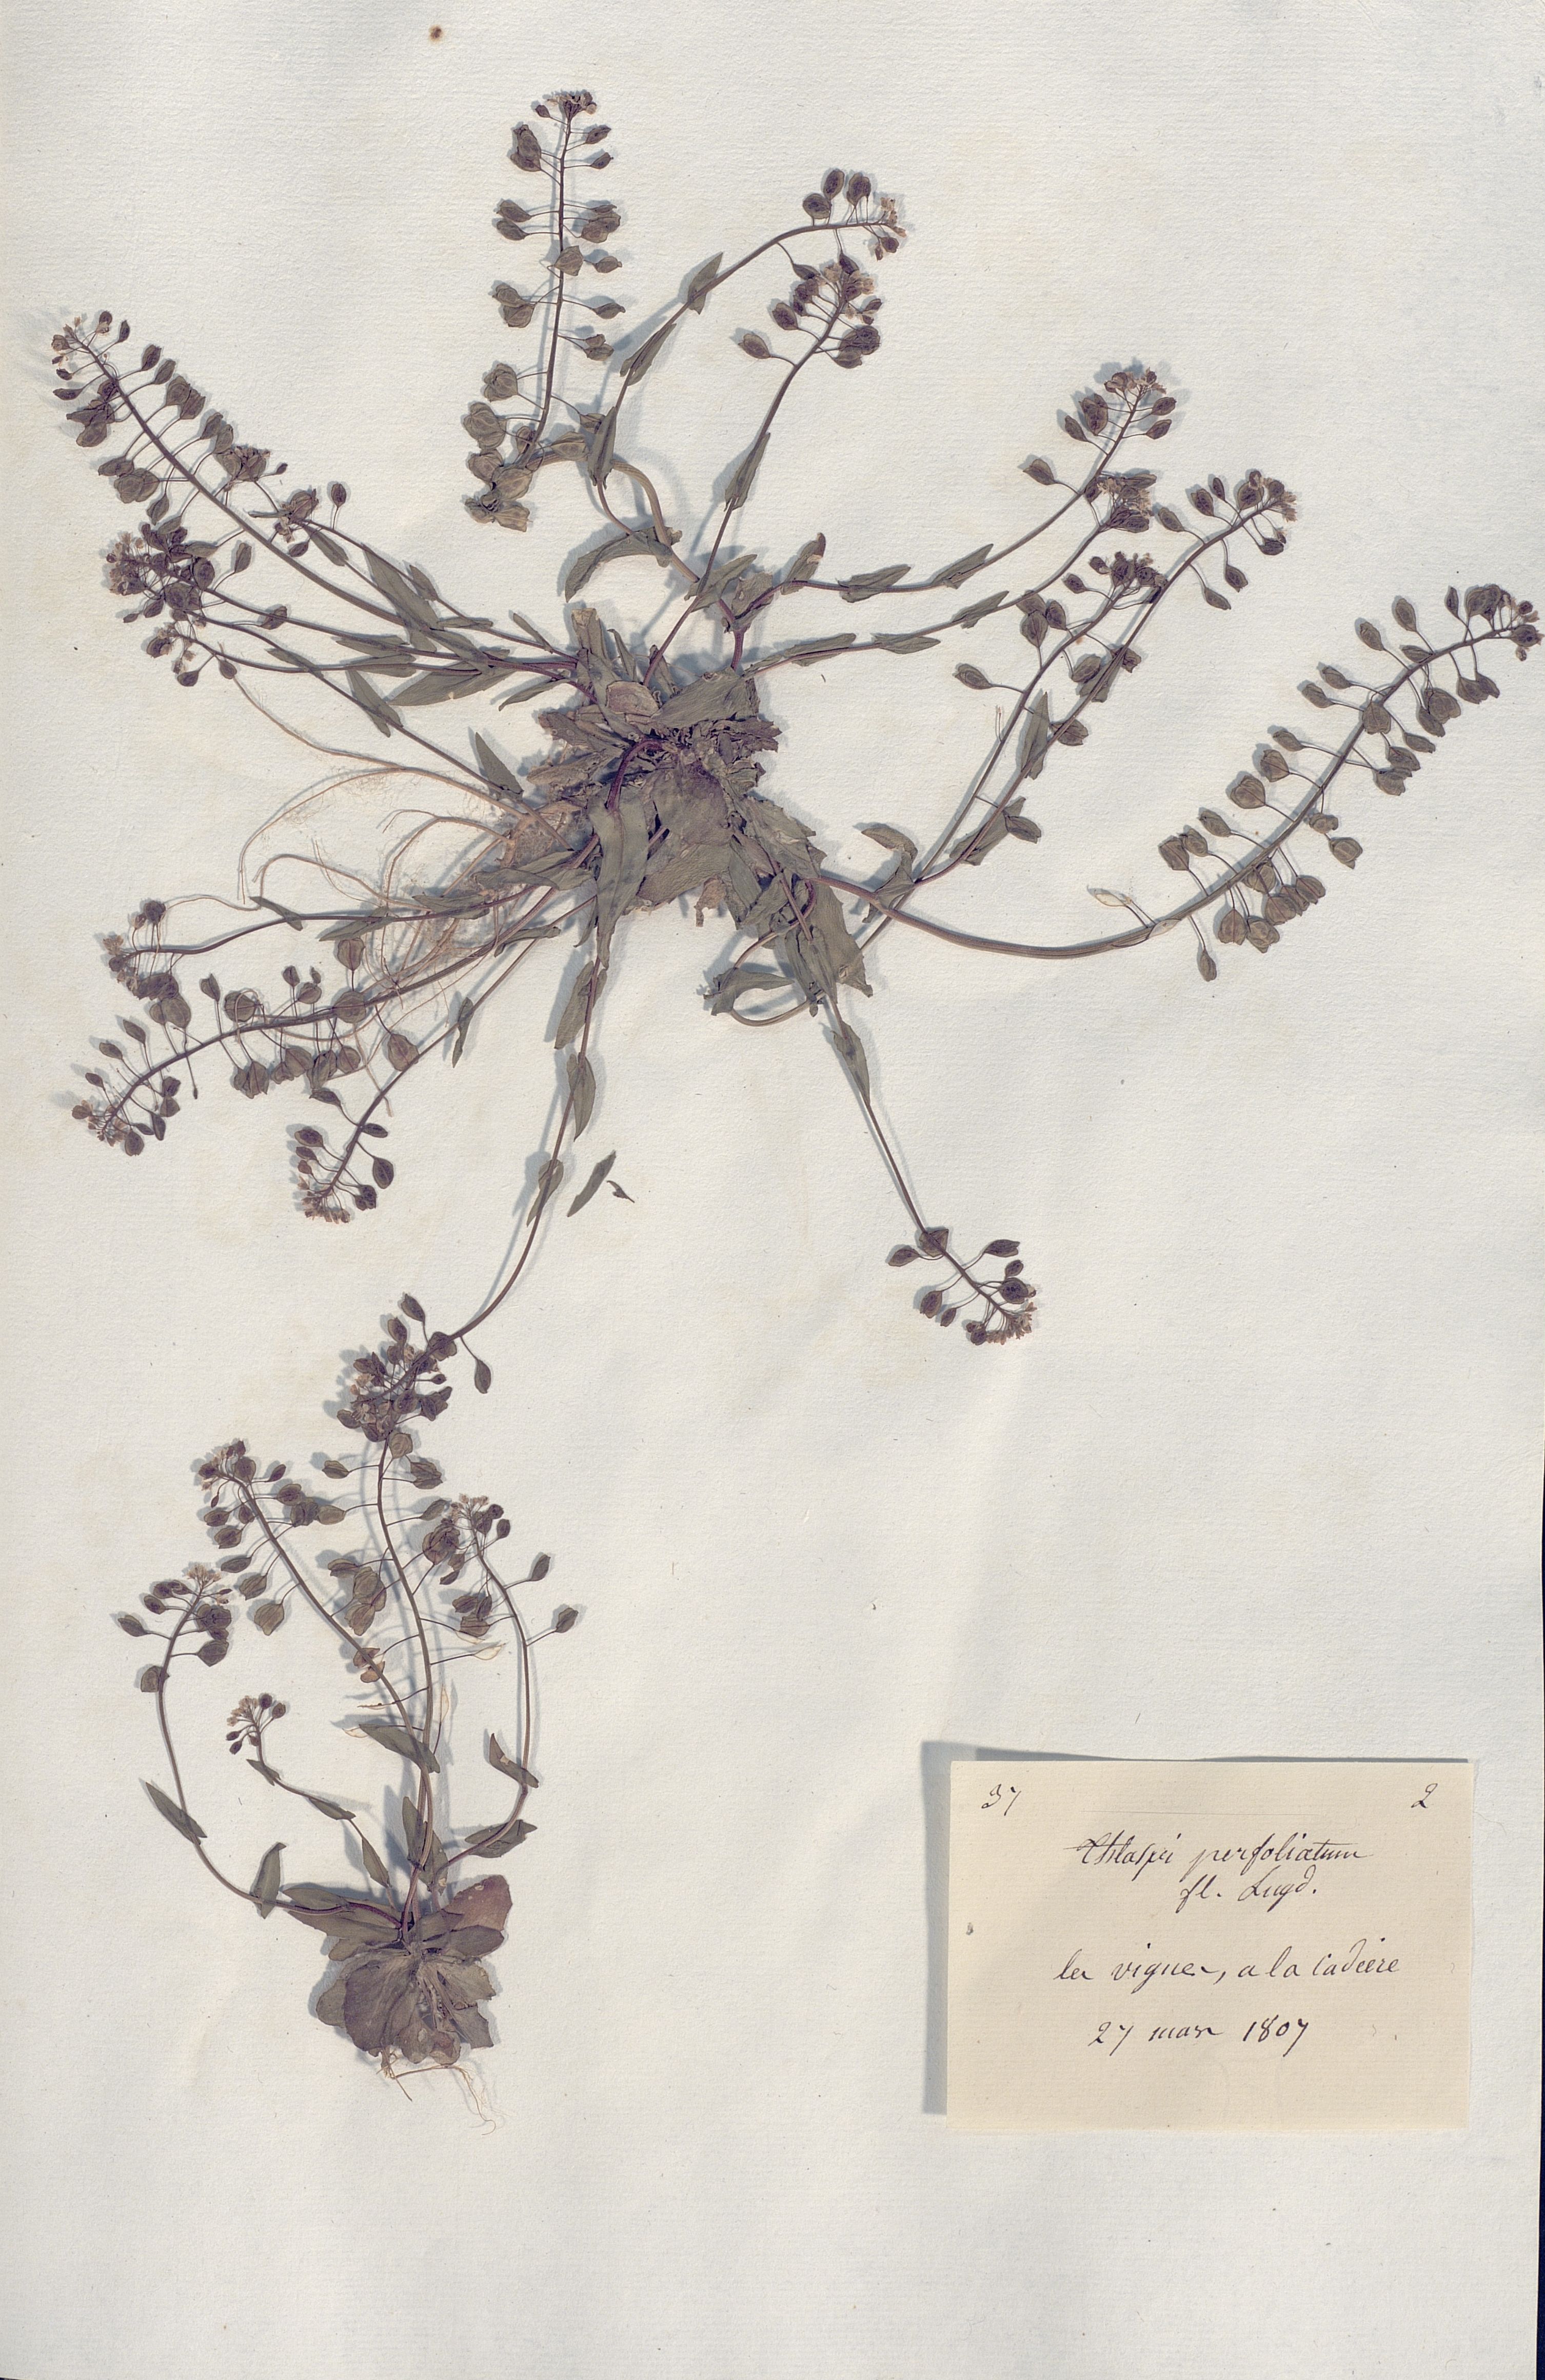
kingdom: Plantae
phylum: Tracheophyta
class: Magnoliopsida
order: Brassicales
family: Brassicaceae
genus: Noccaea
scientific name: Noccaea perfoliata
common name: Perfoliate pennycress
